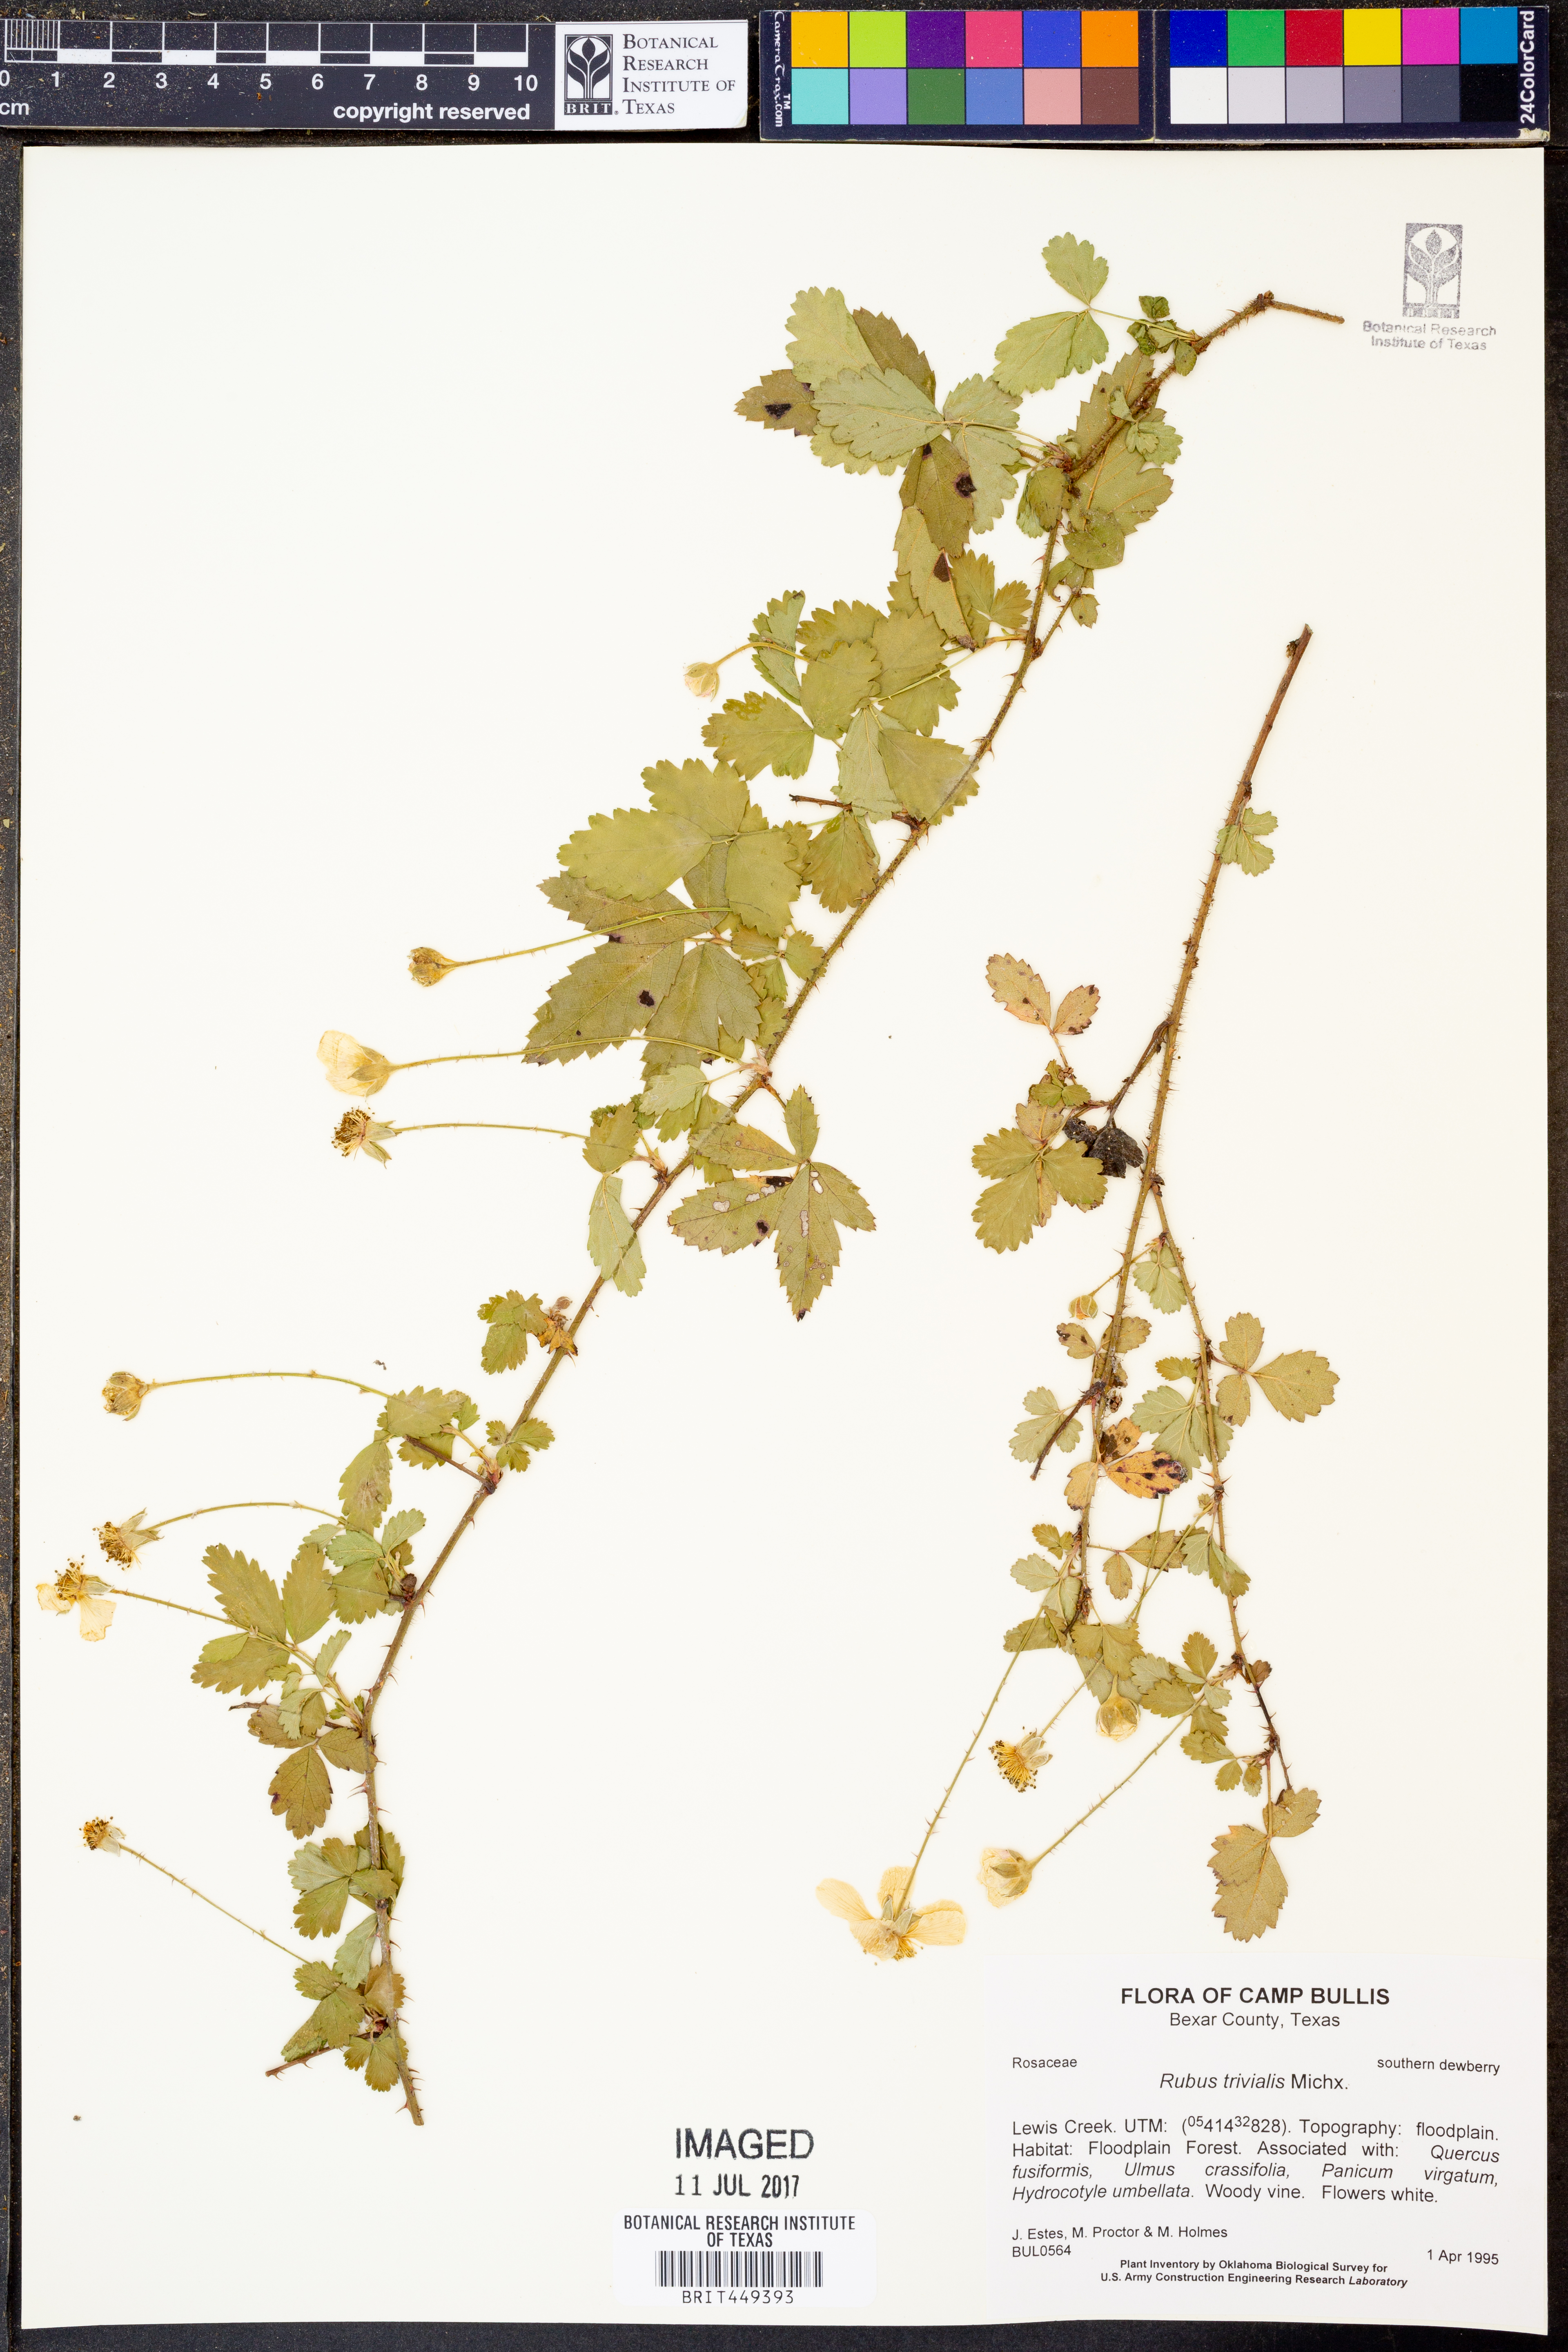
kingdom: Plantae
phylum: Tracheophyta
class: Magnoliopsida
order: Rosales
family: Rosaceae
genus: Rubus
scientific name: Rubus trivialis
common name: Southern dewberry
